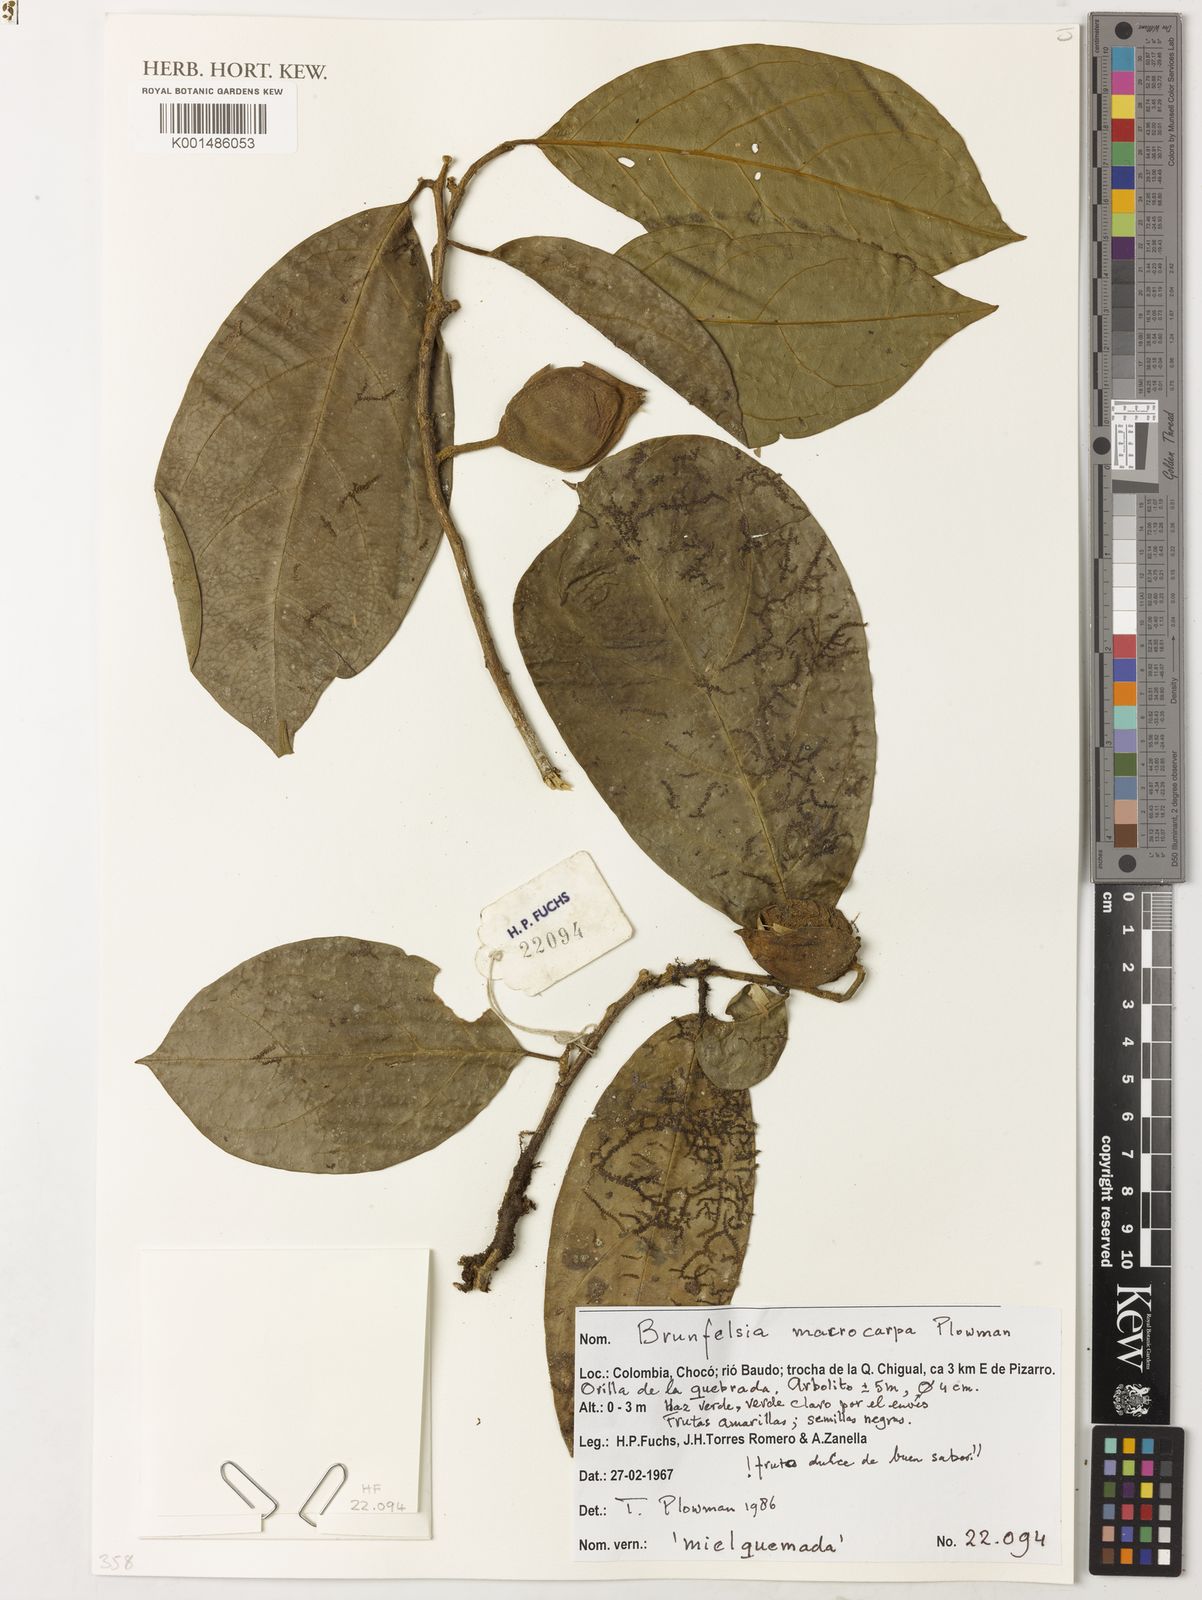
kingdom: Plantae
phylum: Tracheophyta
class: Magnoliopsida
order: Solanales
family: Solanaceae
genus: Brunfelsia
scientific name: Brunfelsia macrocarpa
